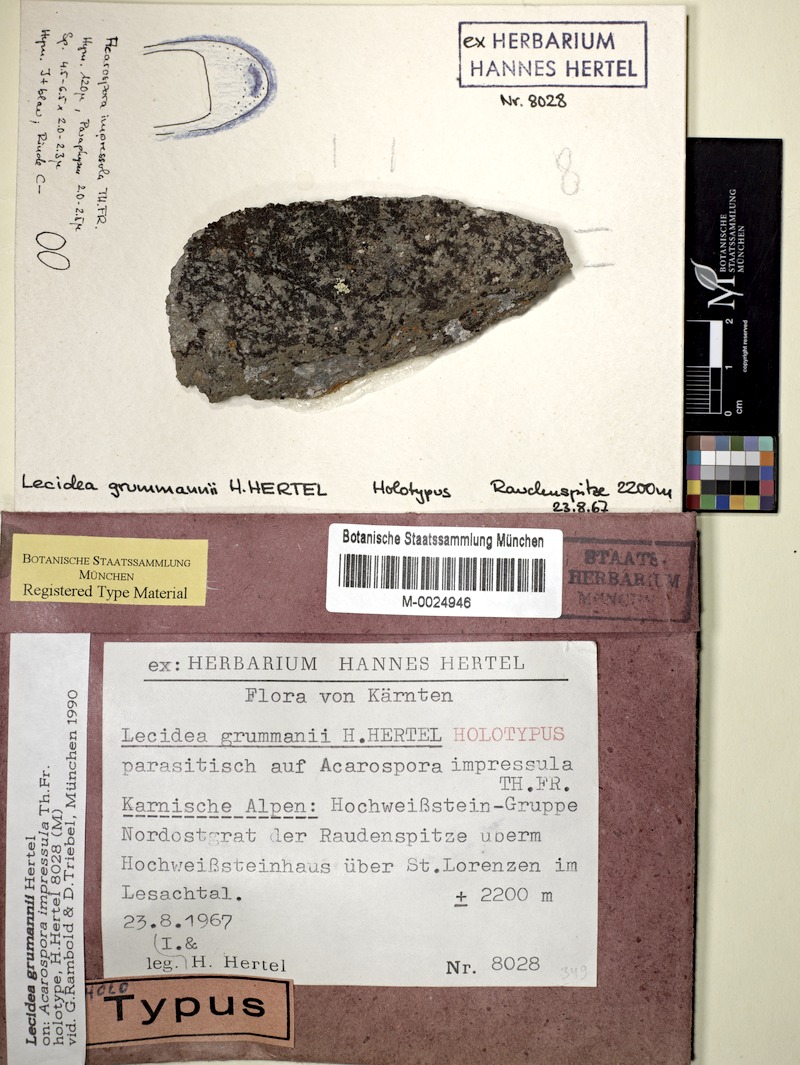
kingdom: Fungi
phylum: Ascomycota
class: Lecanoromycetes
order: Lecideales
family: Lecideaceae
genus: Lecidea
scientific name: Lecidea grummannii
